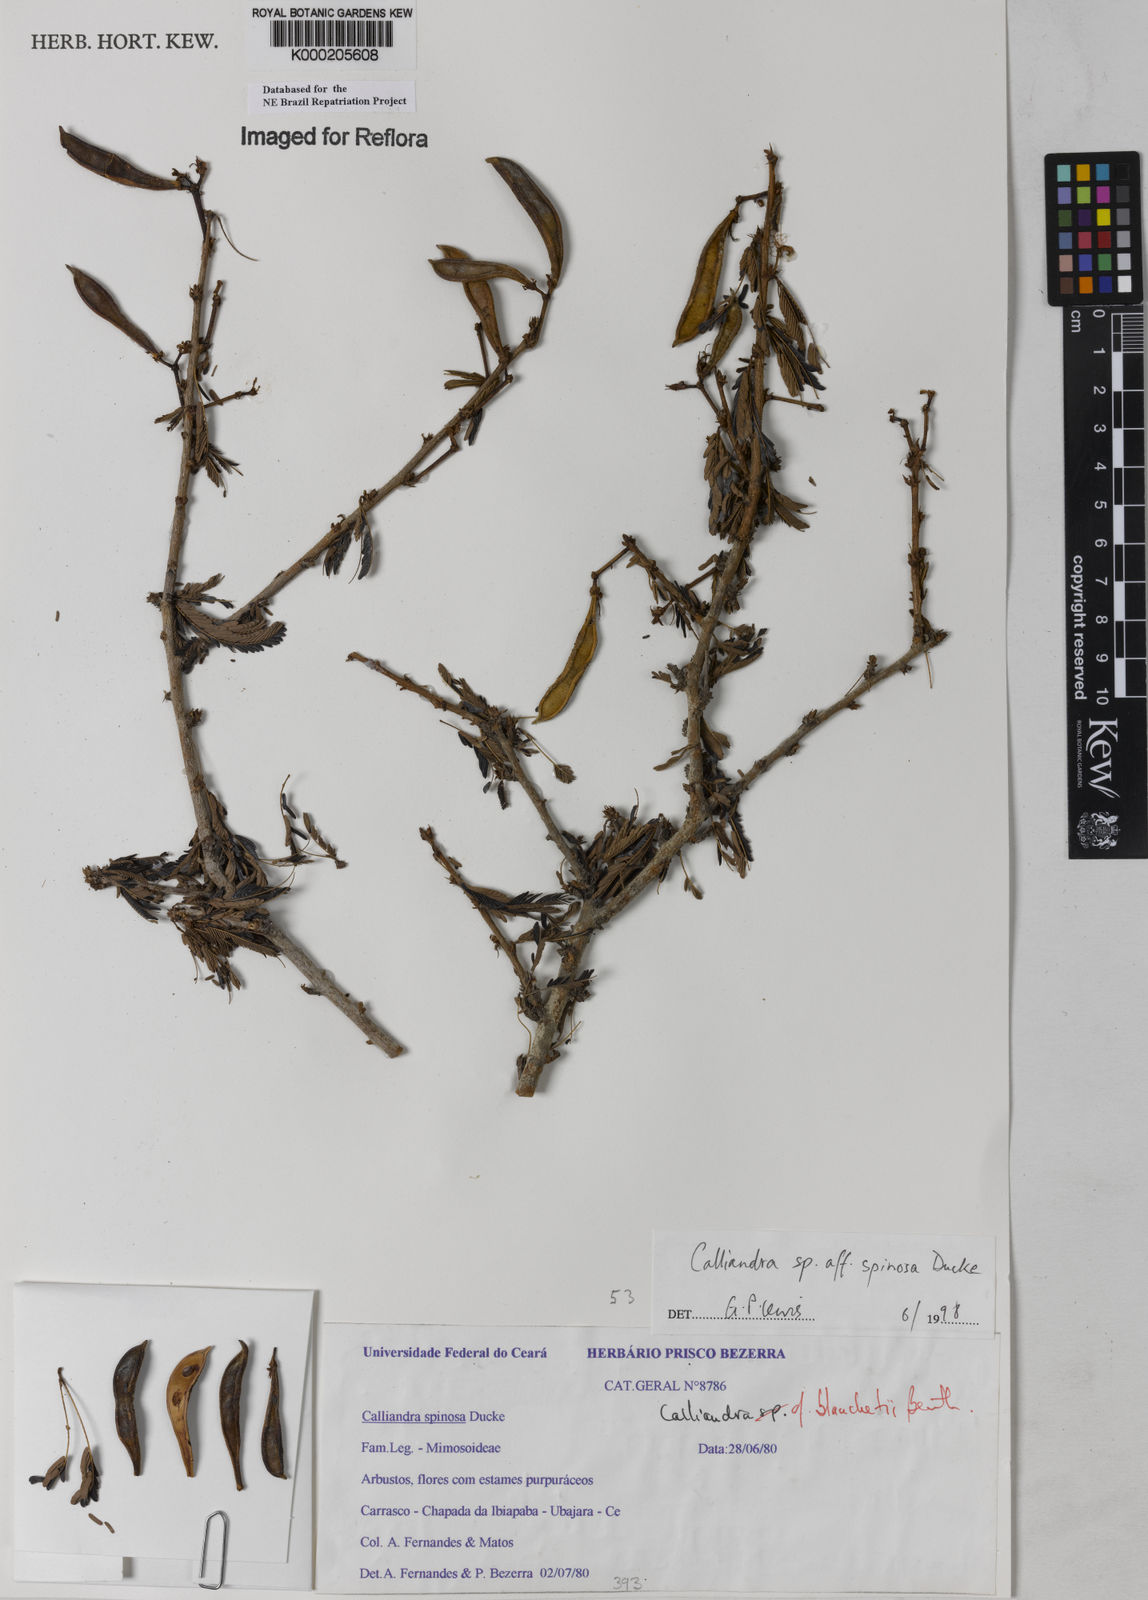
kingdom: Plantae
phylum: Tracheophyta
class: Magnoliopsida
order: Fabales
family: Fabaceae
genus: Calliandra
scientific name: Calliandra spinosa
